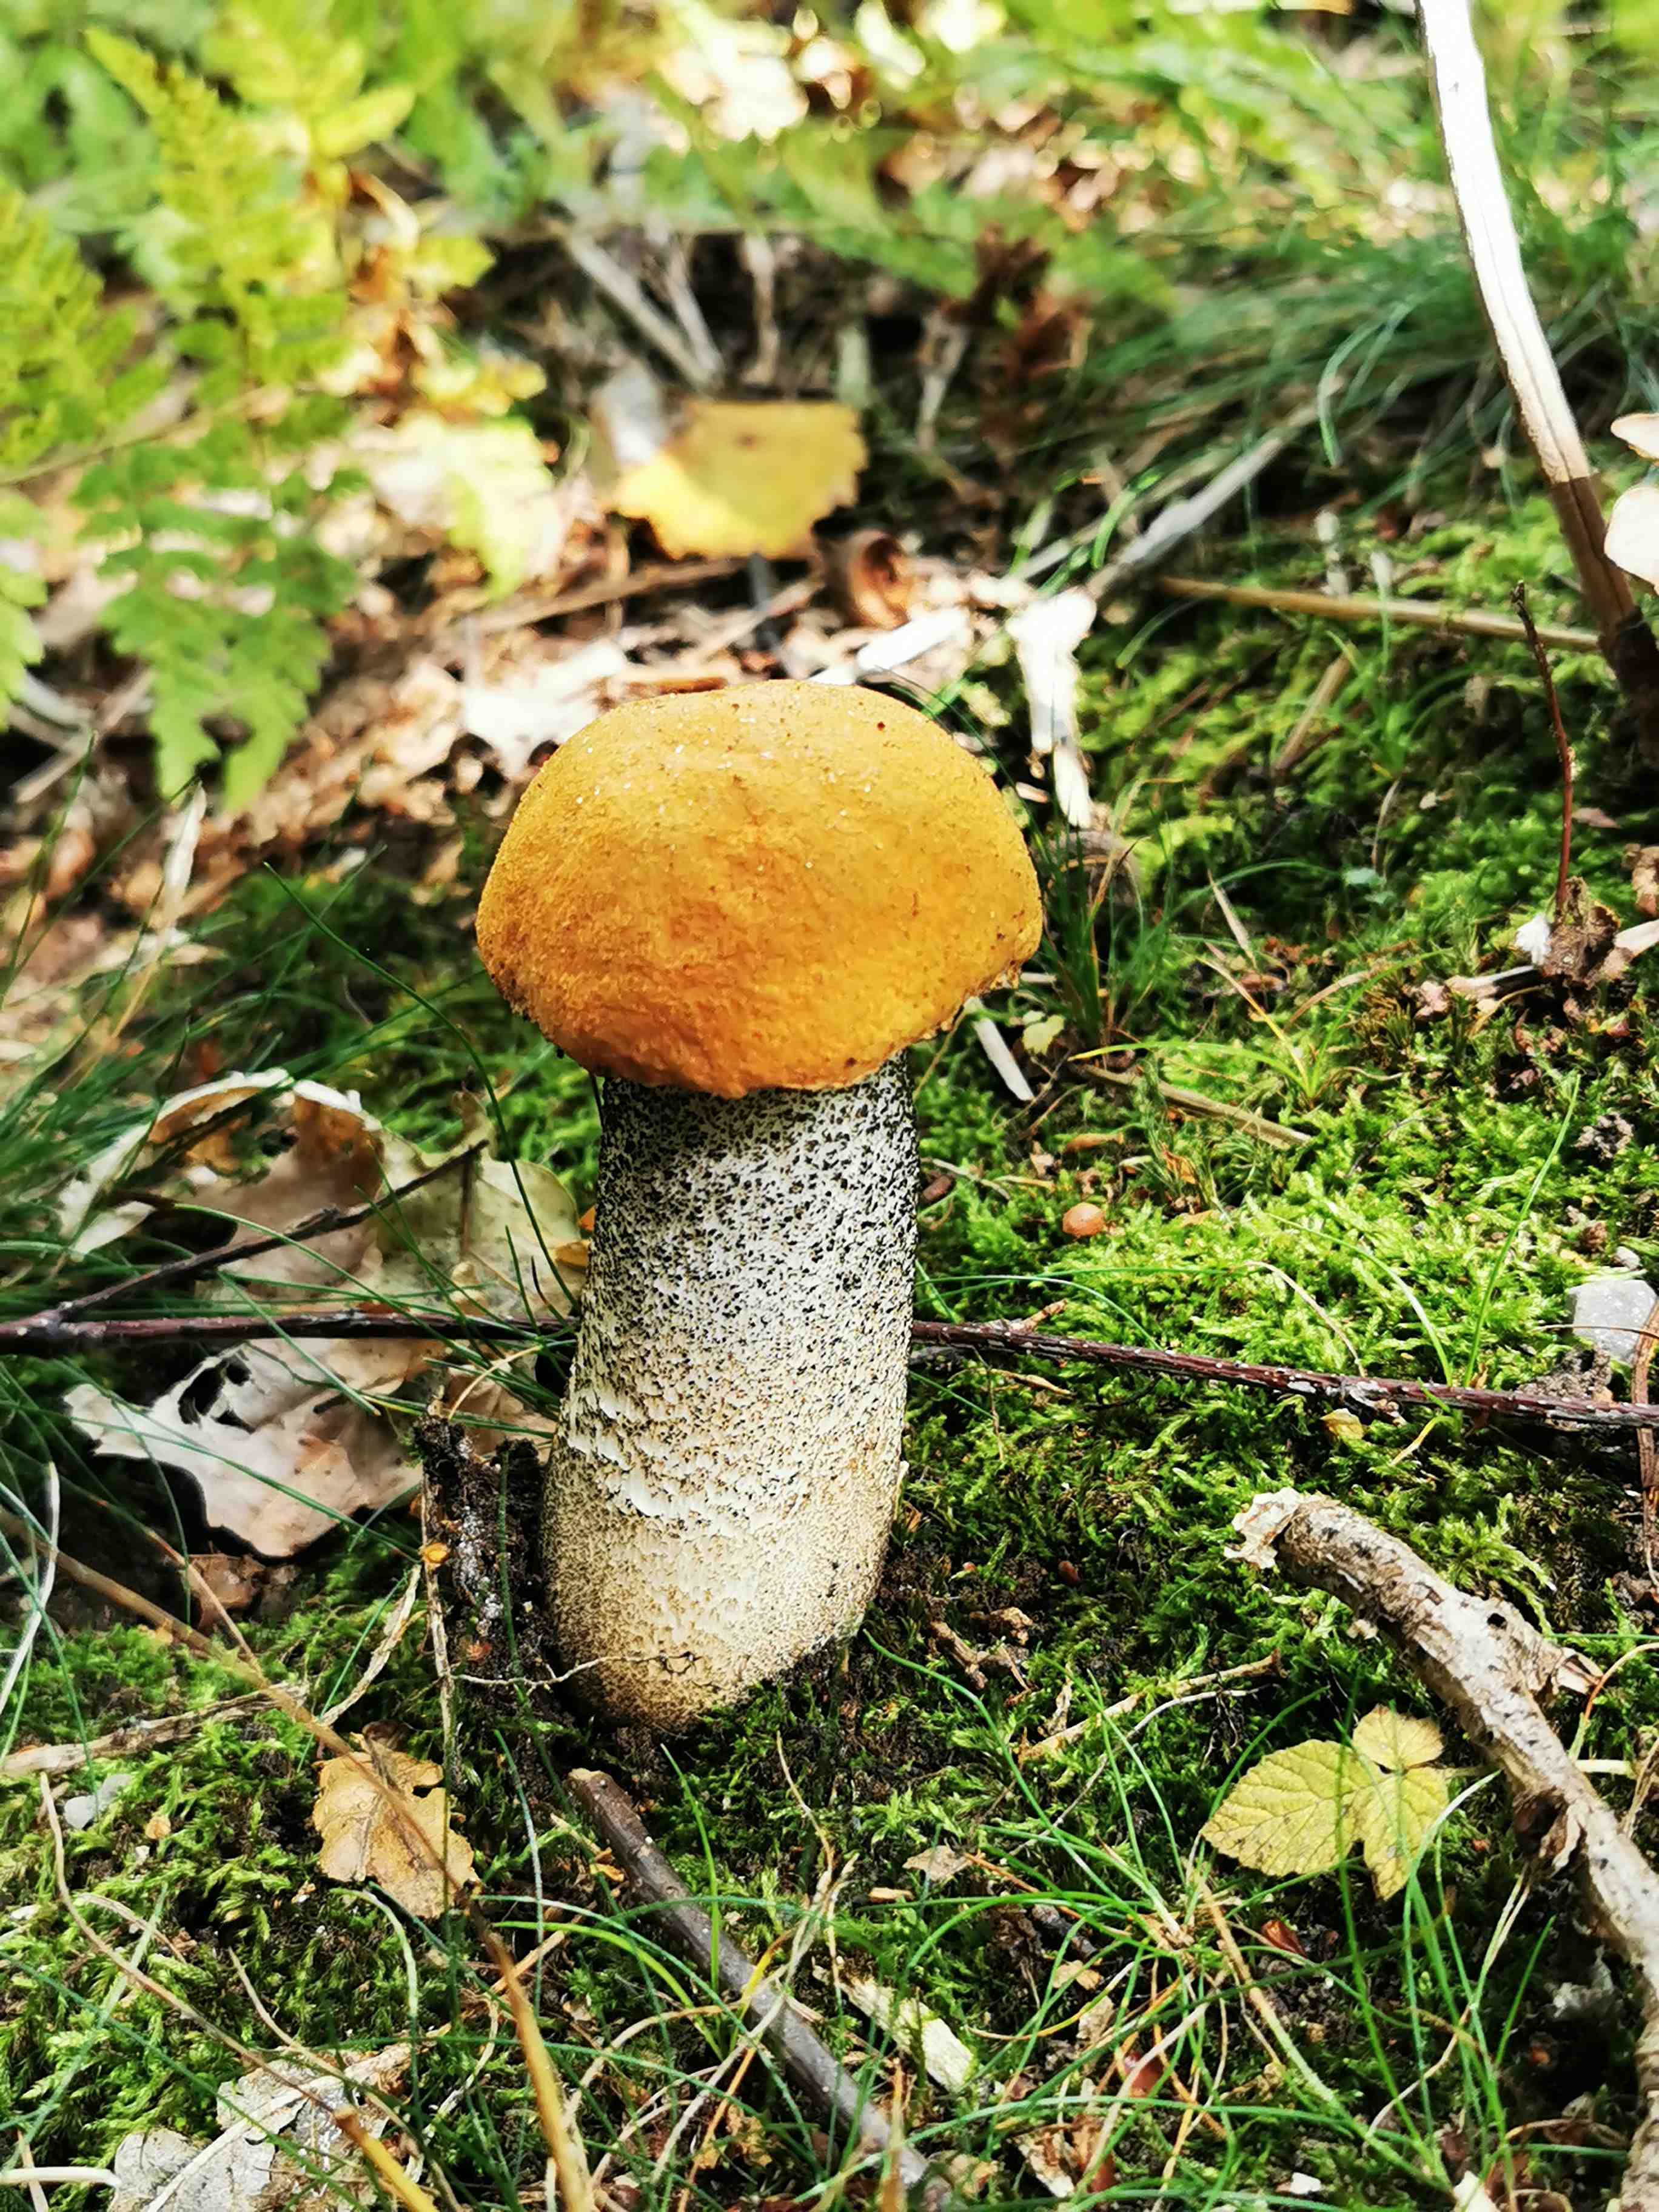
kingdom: Fungi
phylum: Basidiomycota
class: Agaricomycetes
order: Boletales
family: Boletaceae
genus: Leccinum
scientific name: Leccinum versipelle
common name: orange skælrørhat
